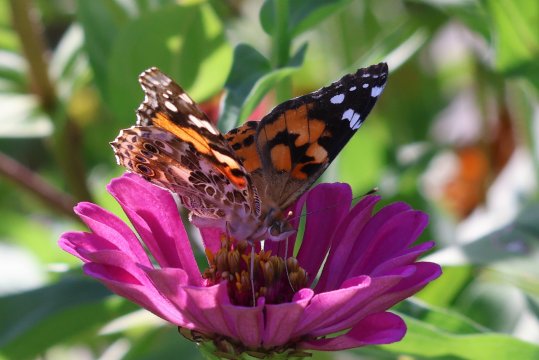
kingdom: Animalia
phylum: Arthropoda
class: Insecta
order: Lepidoptera
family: Nymphalidae
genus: Vanessa
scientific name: Vanessa cardui
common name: Painted Lady
